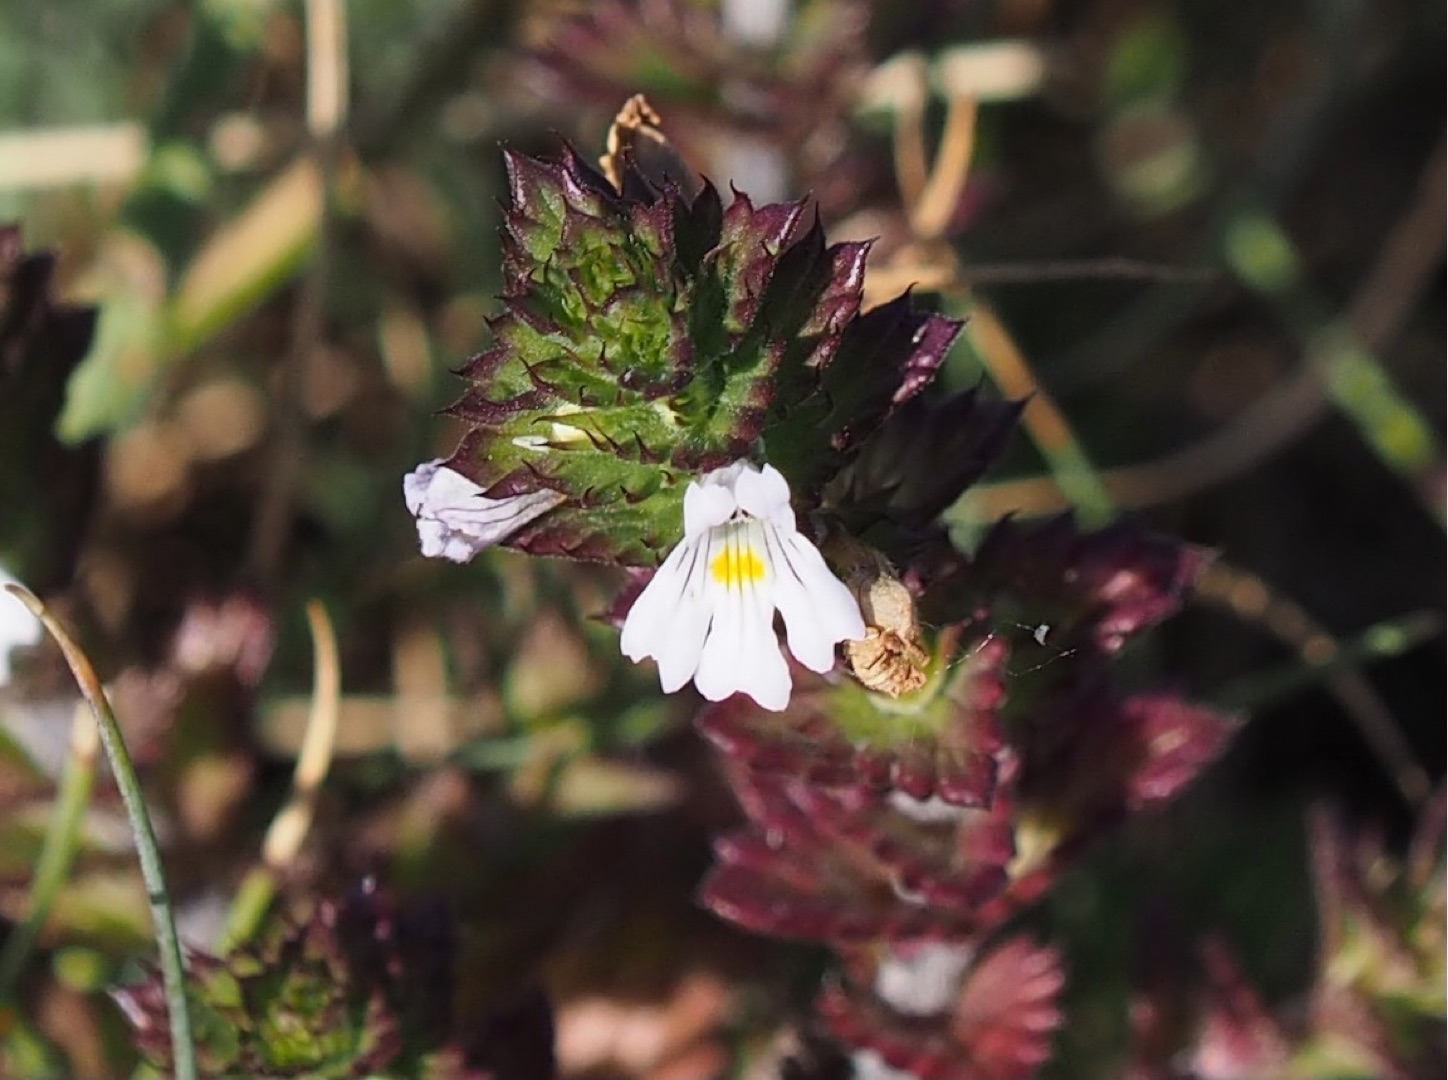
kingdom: Plantae
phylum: Tracheophyta
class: Magnoliopsida
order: Lamiales
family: Orobanchaceae
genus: Euphrasia
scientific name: Euphrasia stricta
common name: Spids øjentrøst
